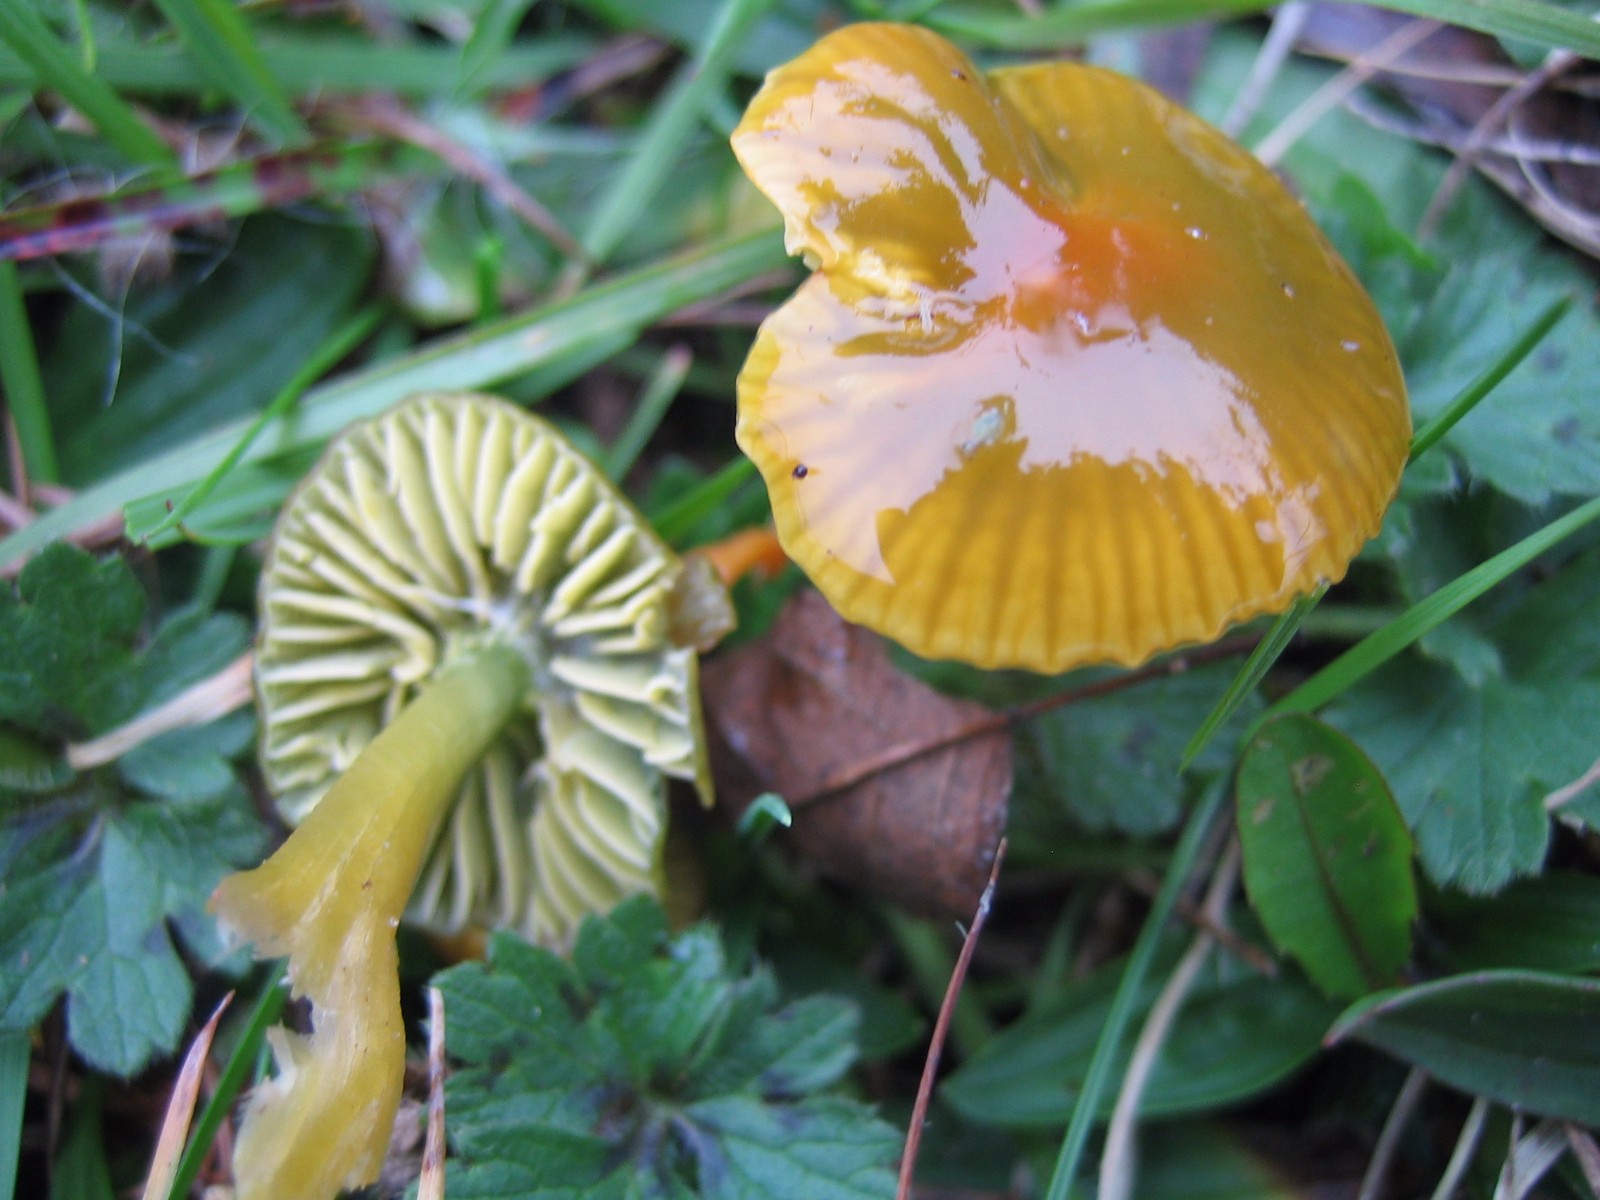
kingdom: Fungi
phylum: Basidiomycota
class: Agaricomycetes
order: Agaricales
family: Hygrophoraceae
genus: Gliophorus
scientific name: Gliophorus psittacinus
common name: papegøje-vokshat
